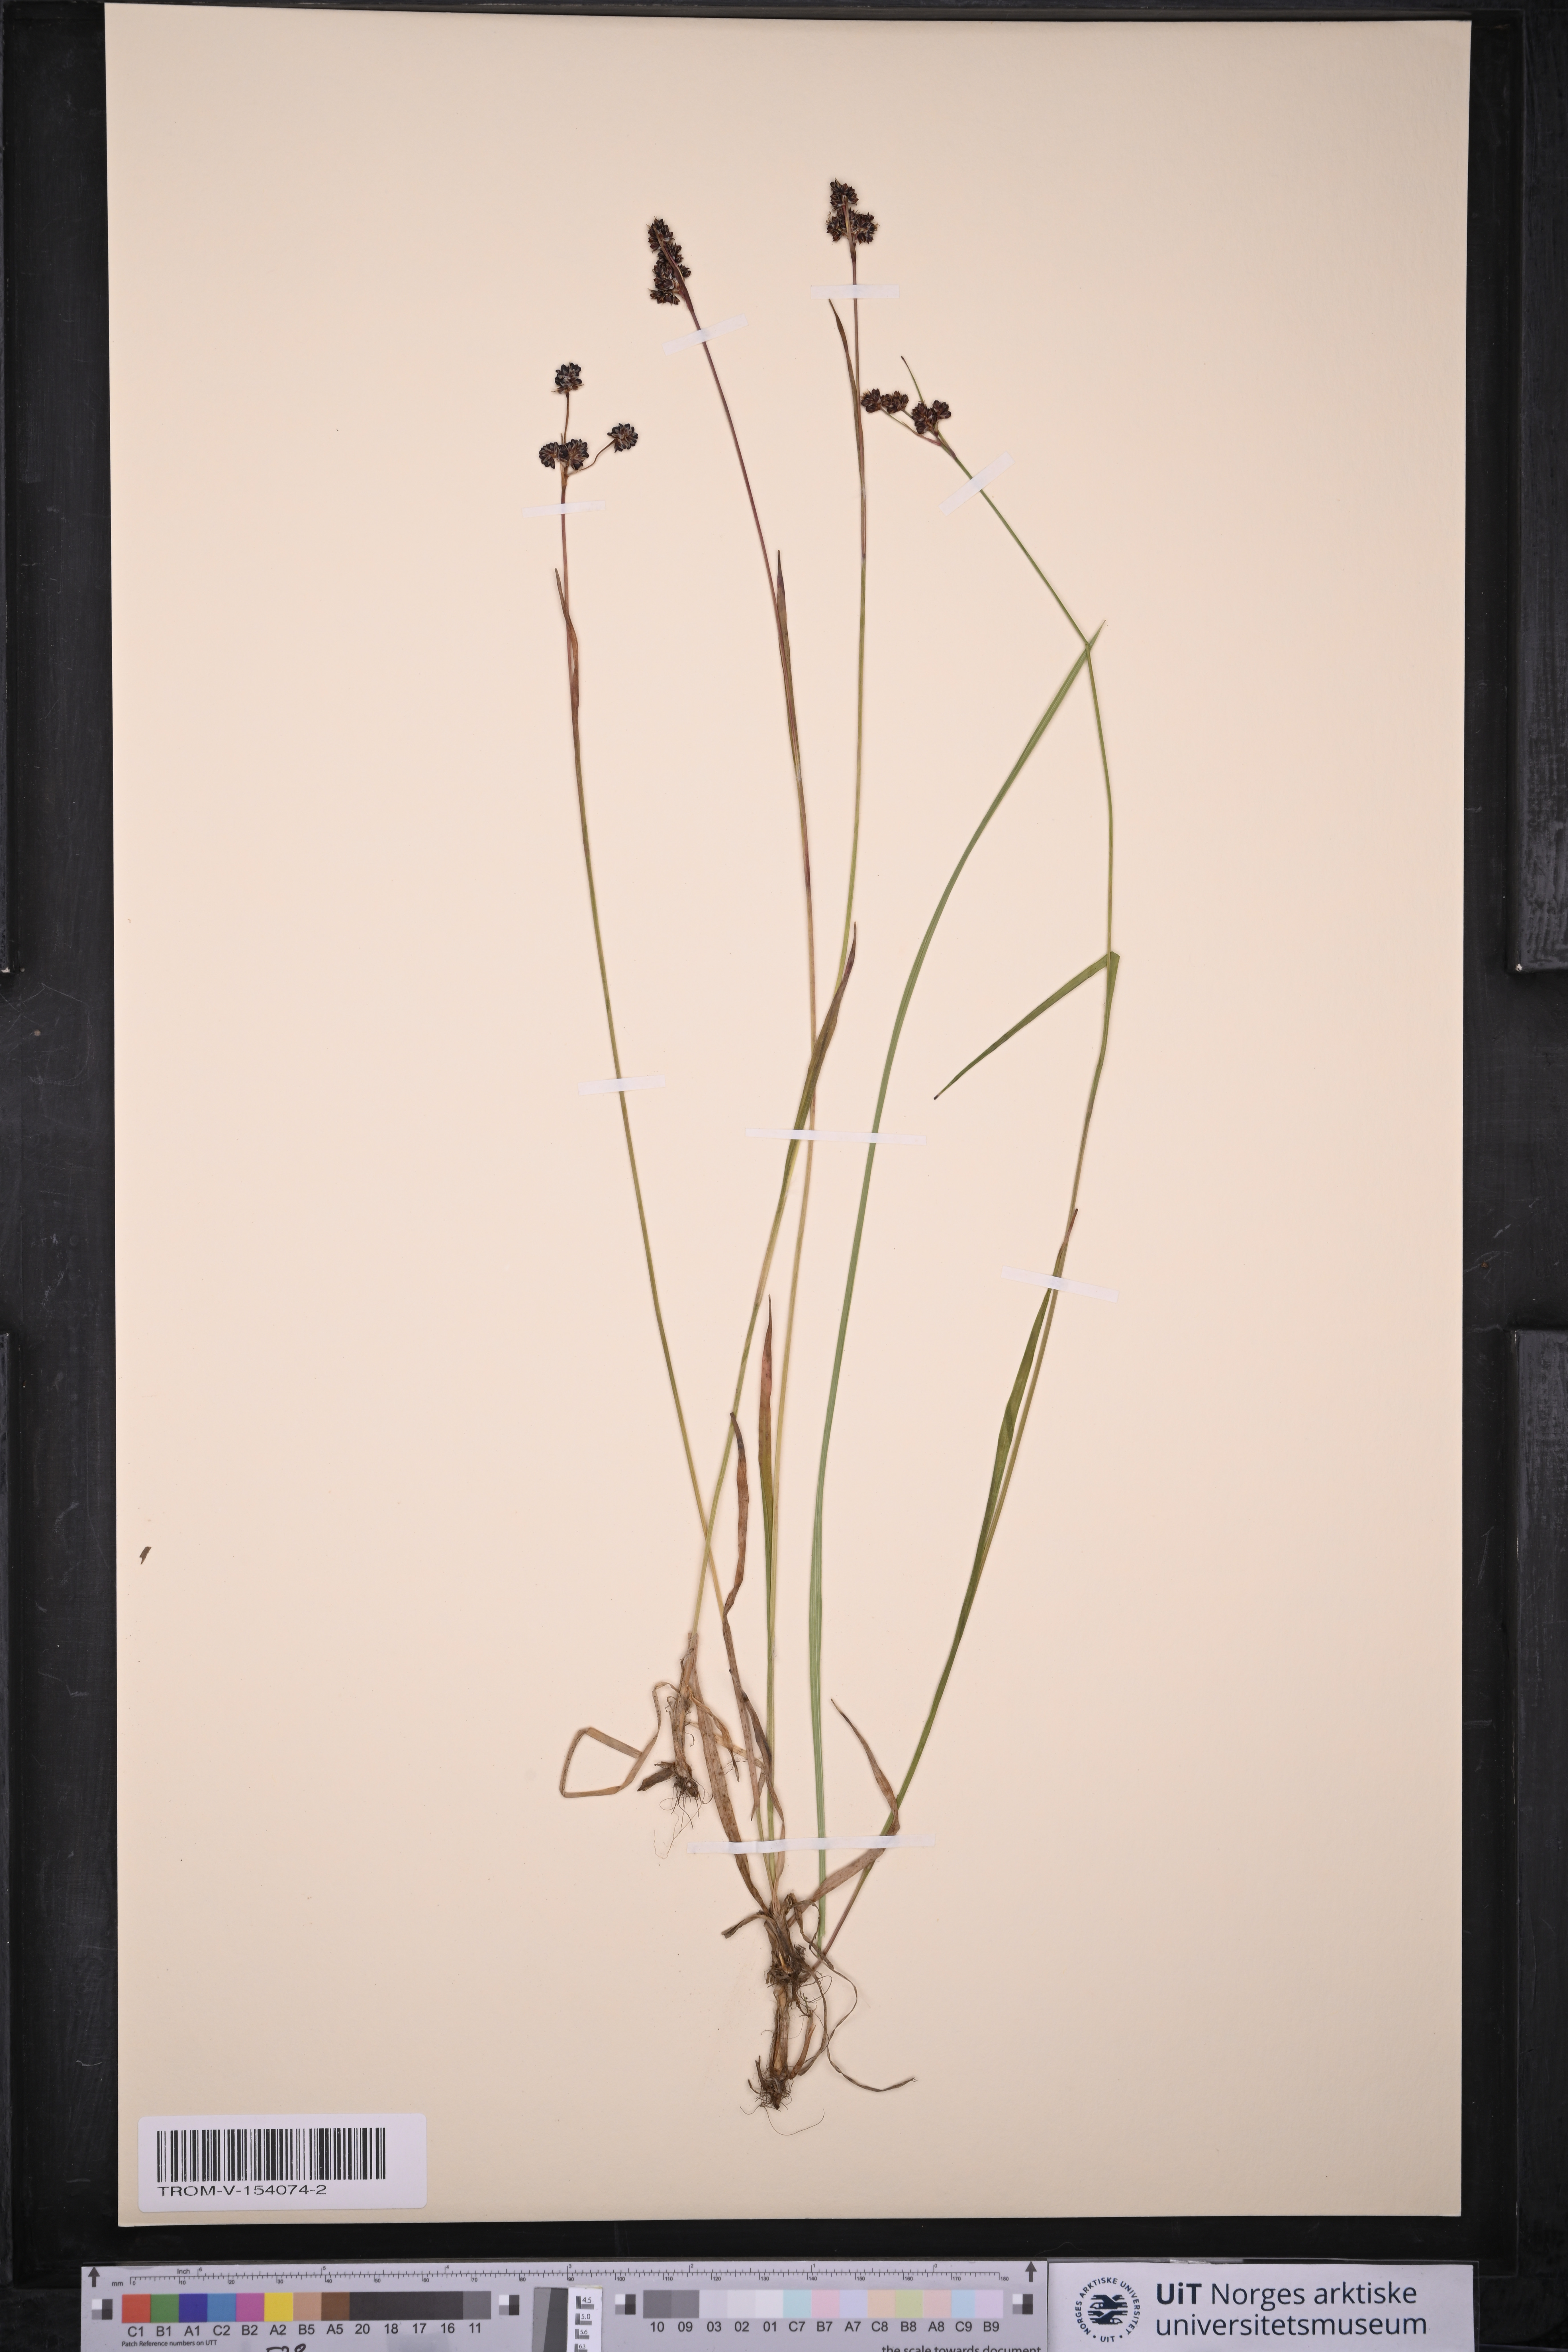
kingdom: Plantae
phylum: Tracheophyta
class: Liliopsida
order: Poales
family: Juncaceae
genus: Luzula
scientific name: Luzula multiflora
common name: Heath wood-rush
